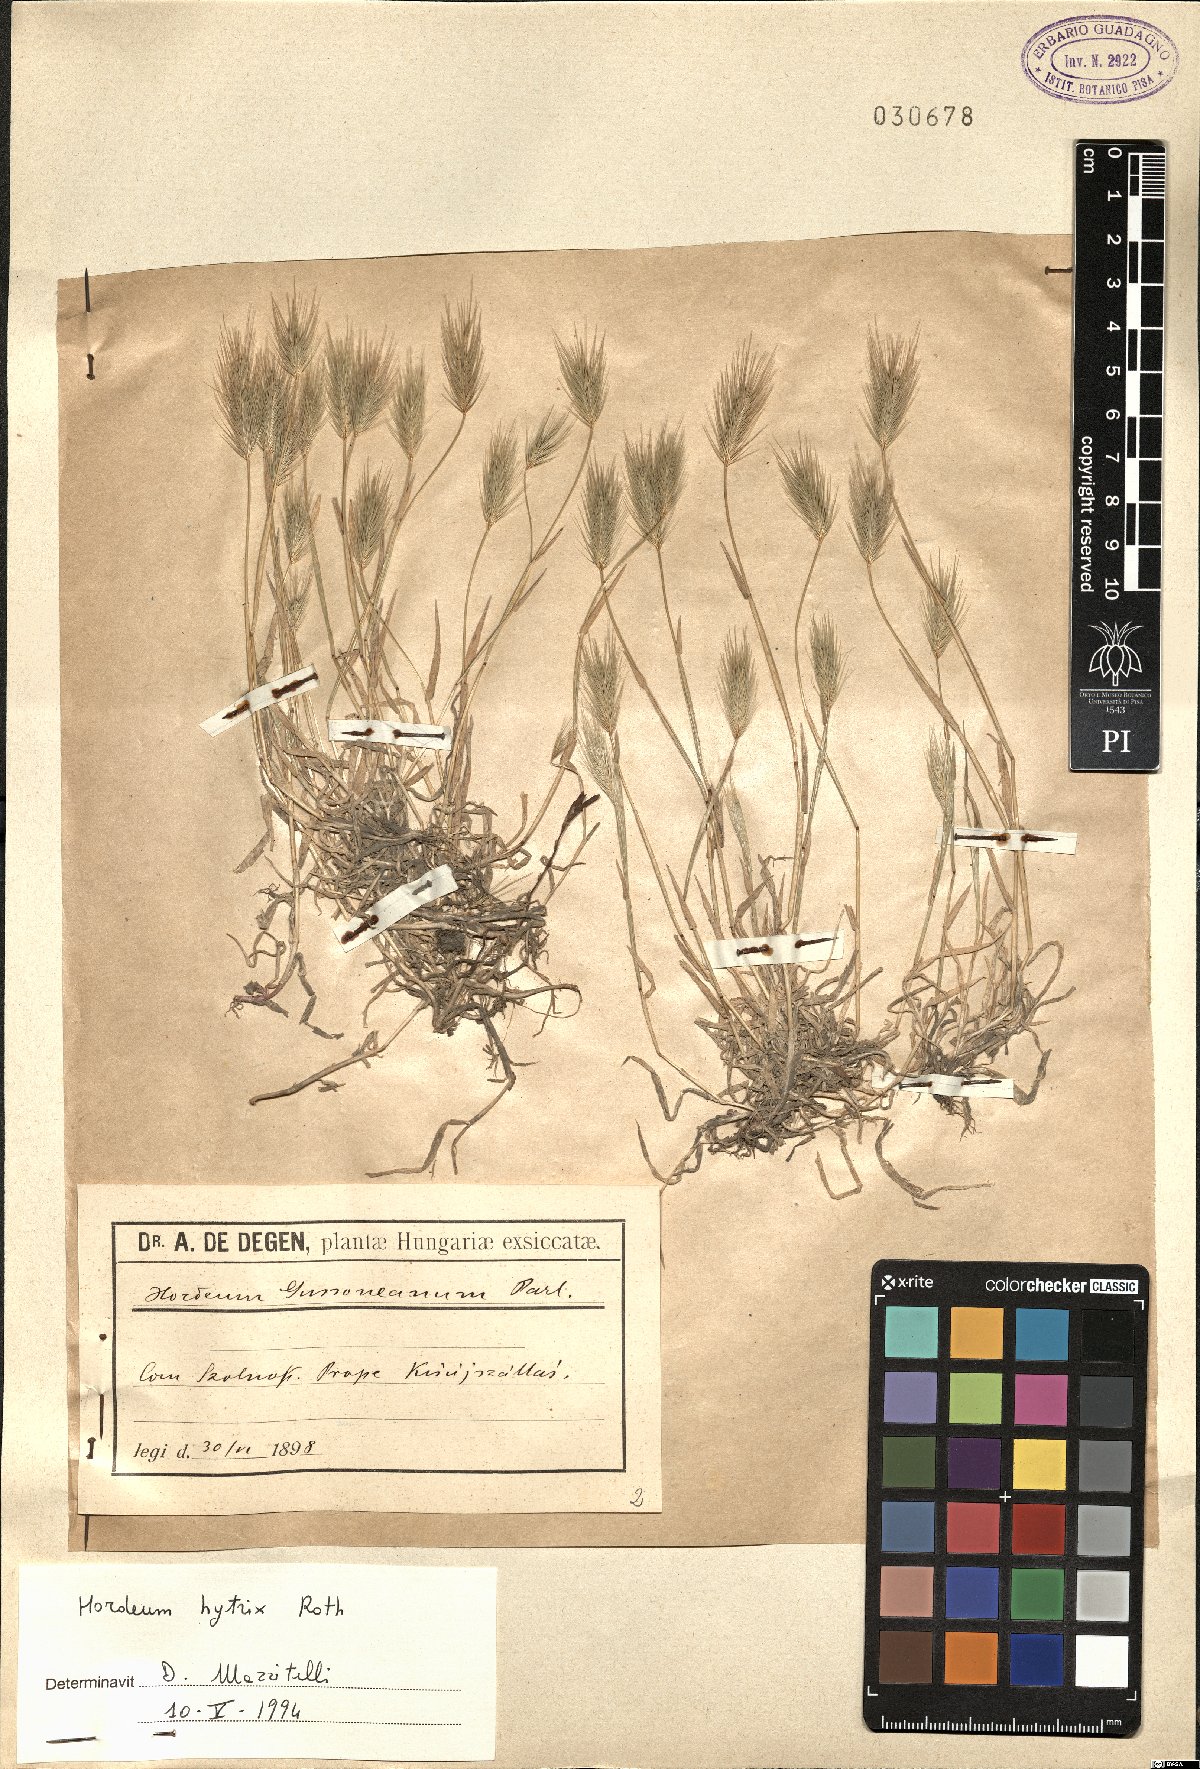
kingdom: Plantae
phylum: Tracheophyta
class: Liliopsida
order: Poales
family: Poaceae
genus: Hordeum
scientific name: Hordeum marinum
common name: Sea barley
